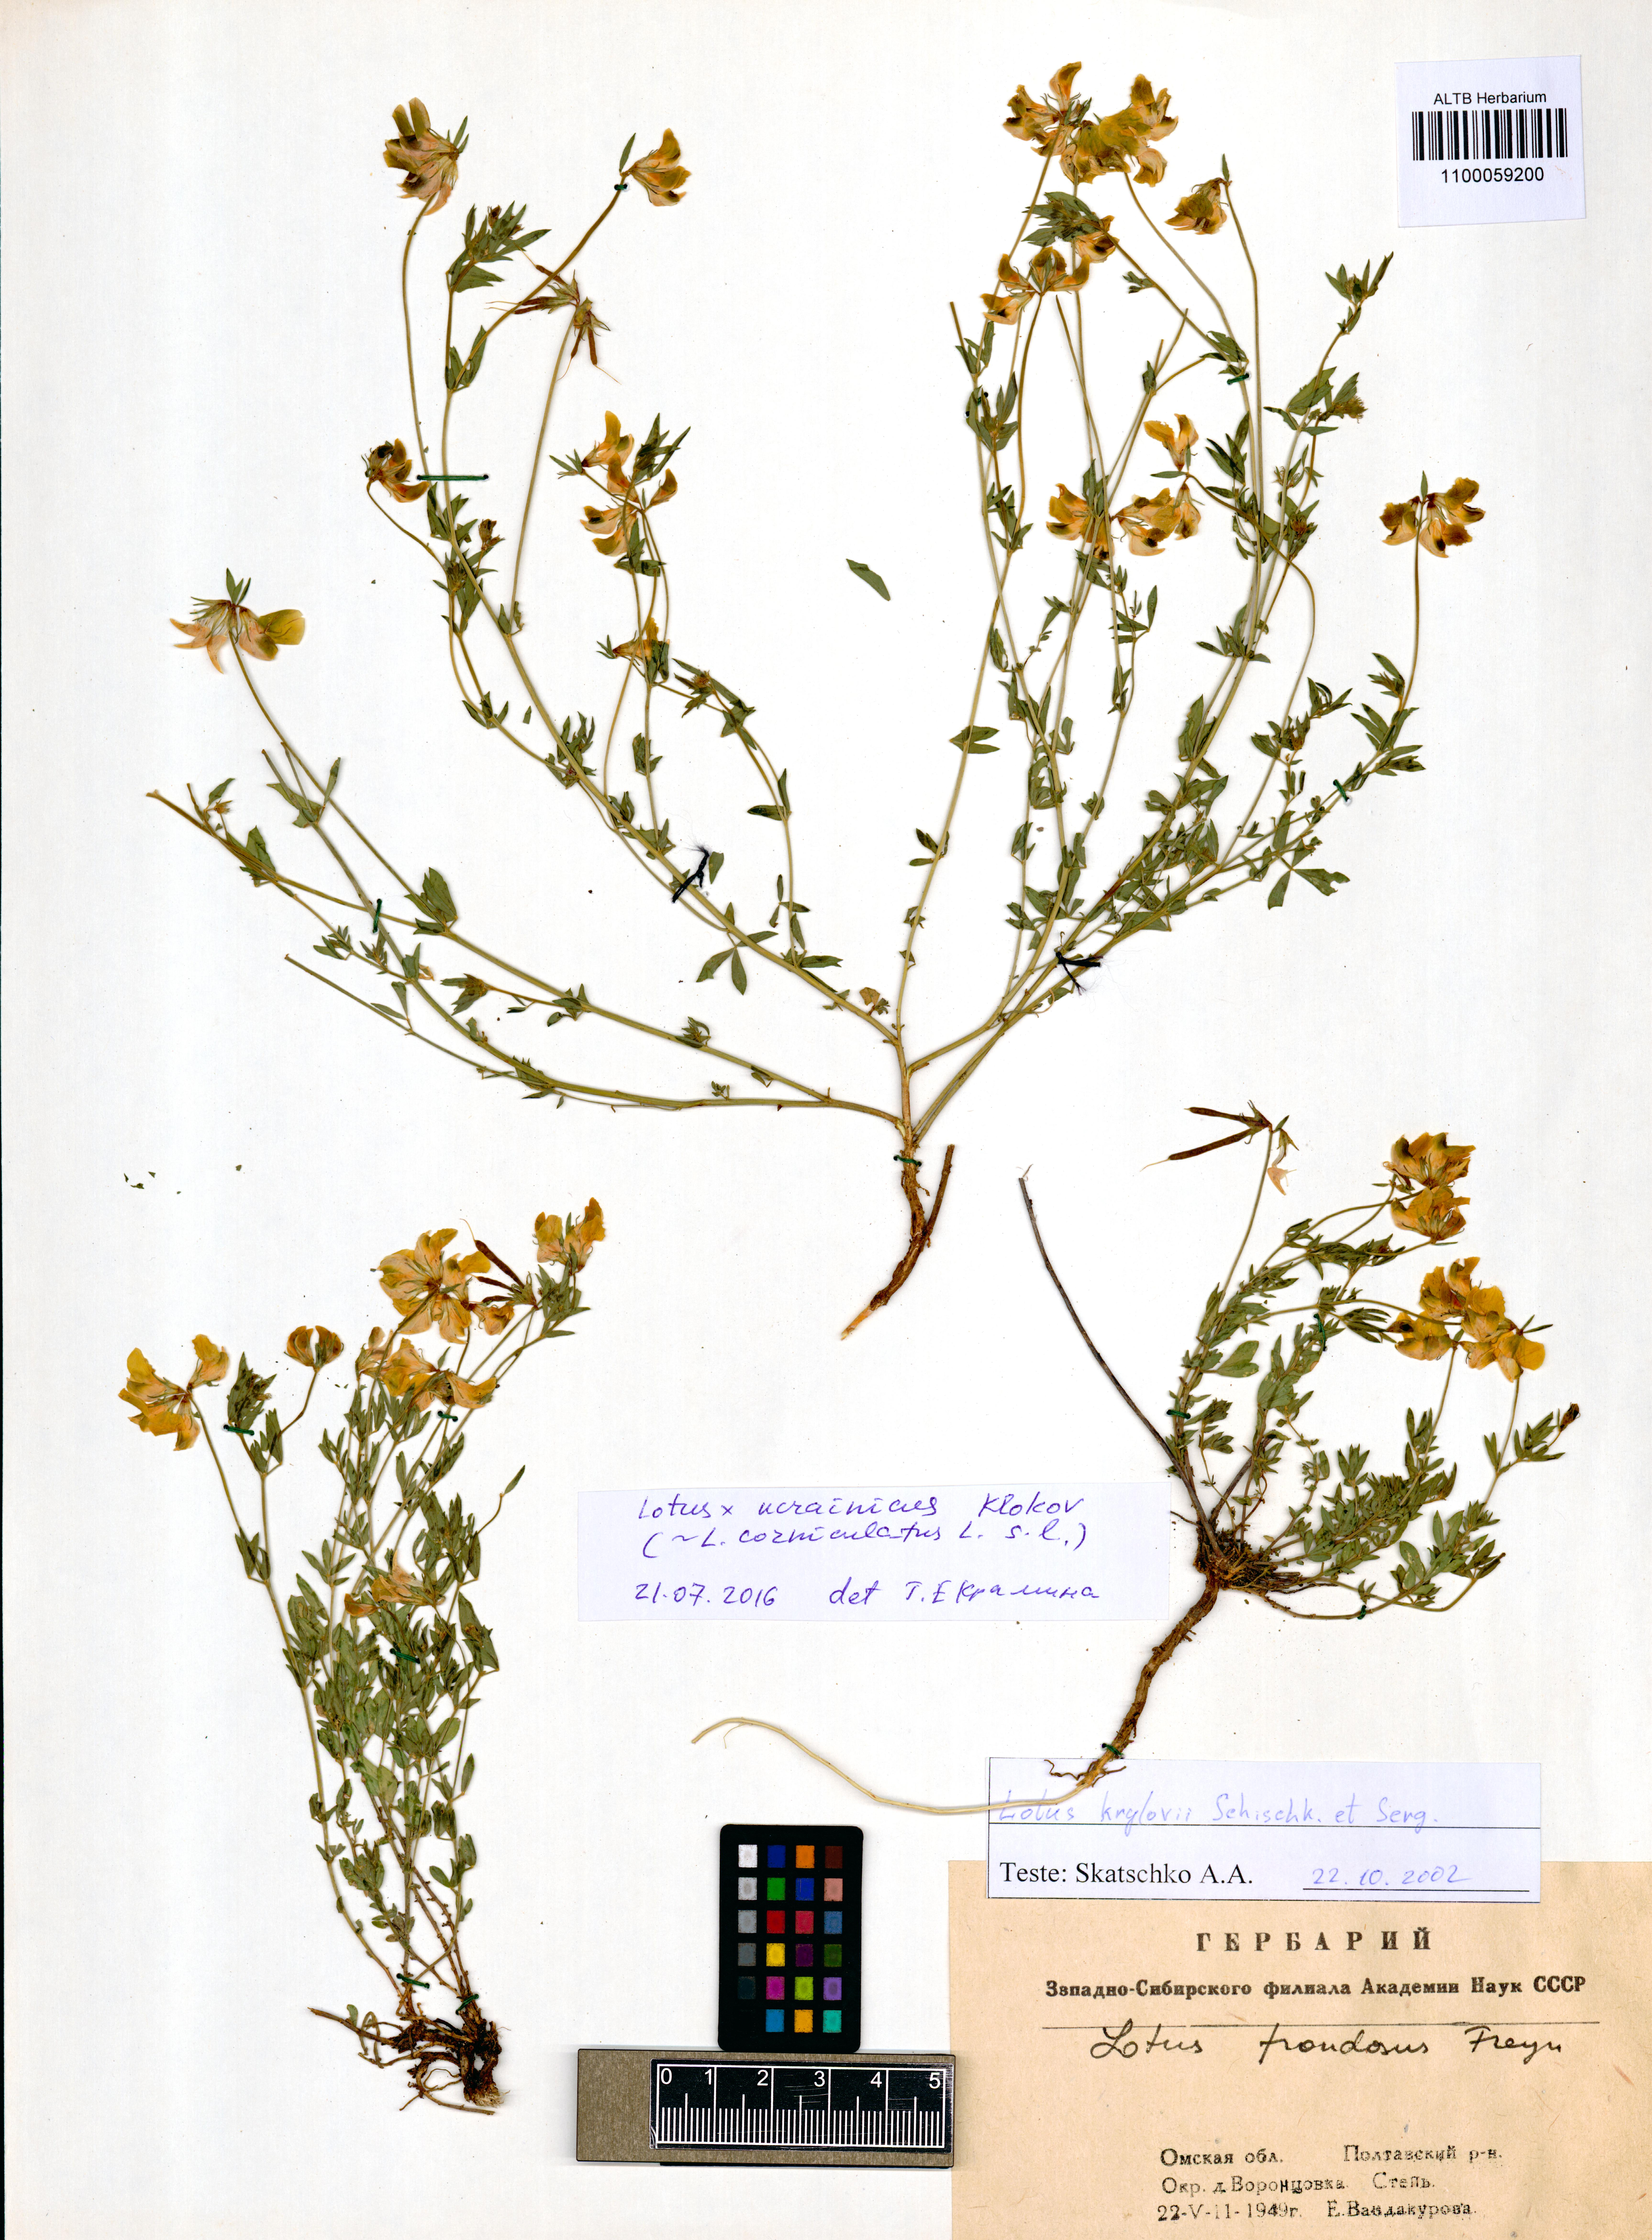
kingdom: Plantae
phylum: Tracheophyta
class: Magnoliopsida
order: Fabales
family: Fabaceae
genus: Lotus
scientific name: Lotus ucrainicus
